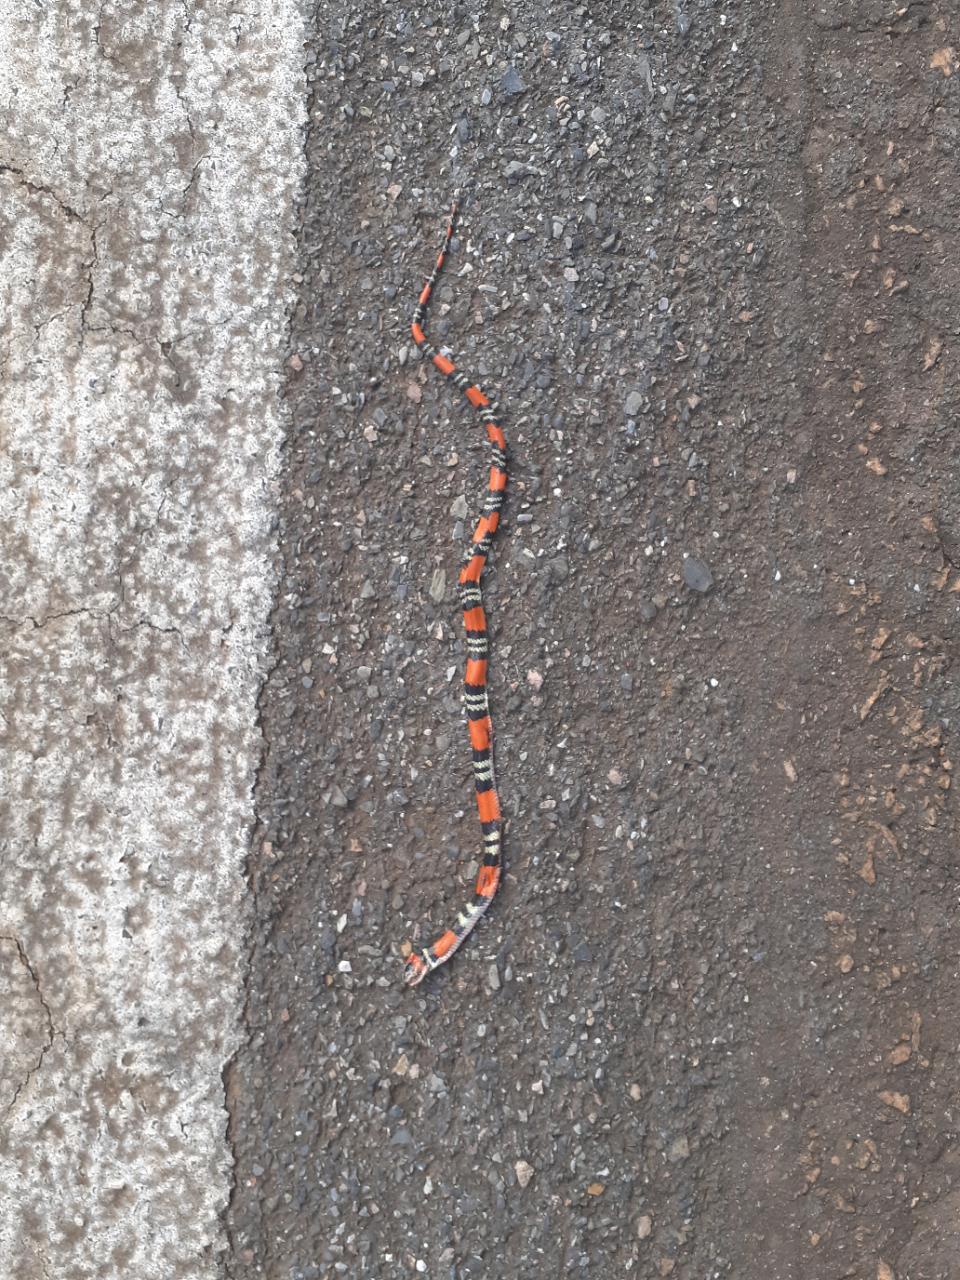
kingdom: Animalia
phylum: Chordata
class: Squamata
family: Elapidae
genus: Micrurus
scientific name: Micrurus
